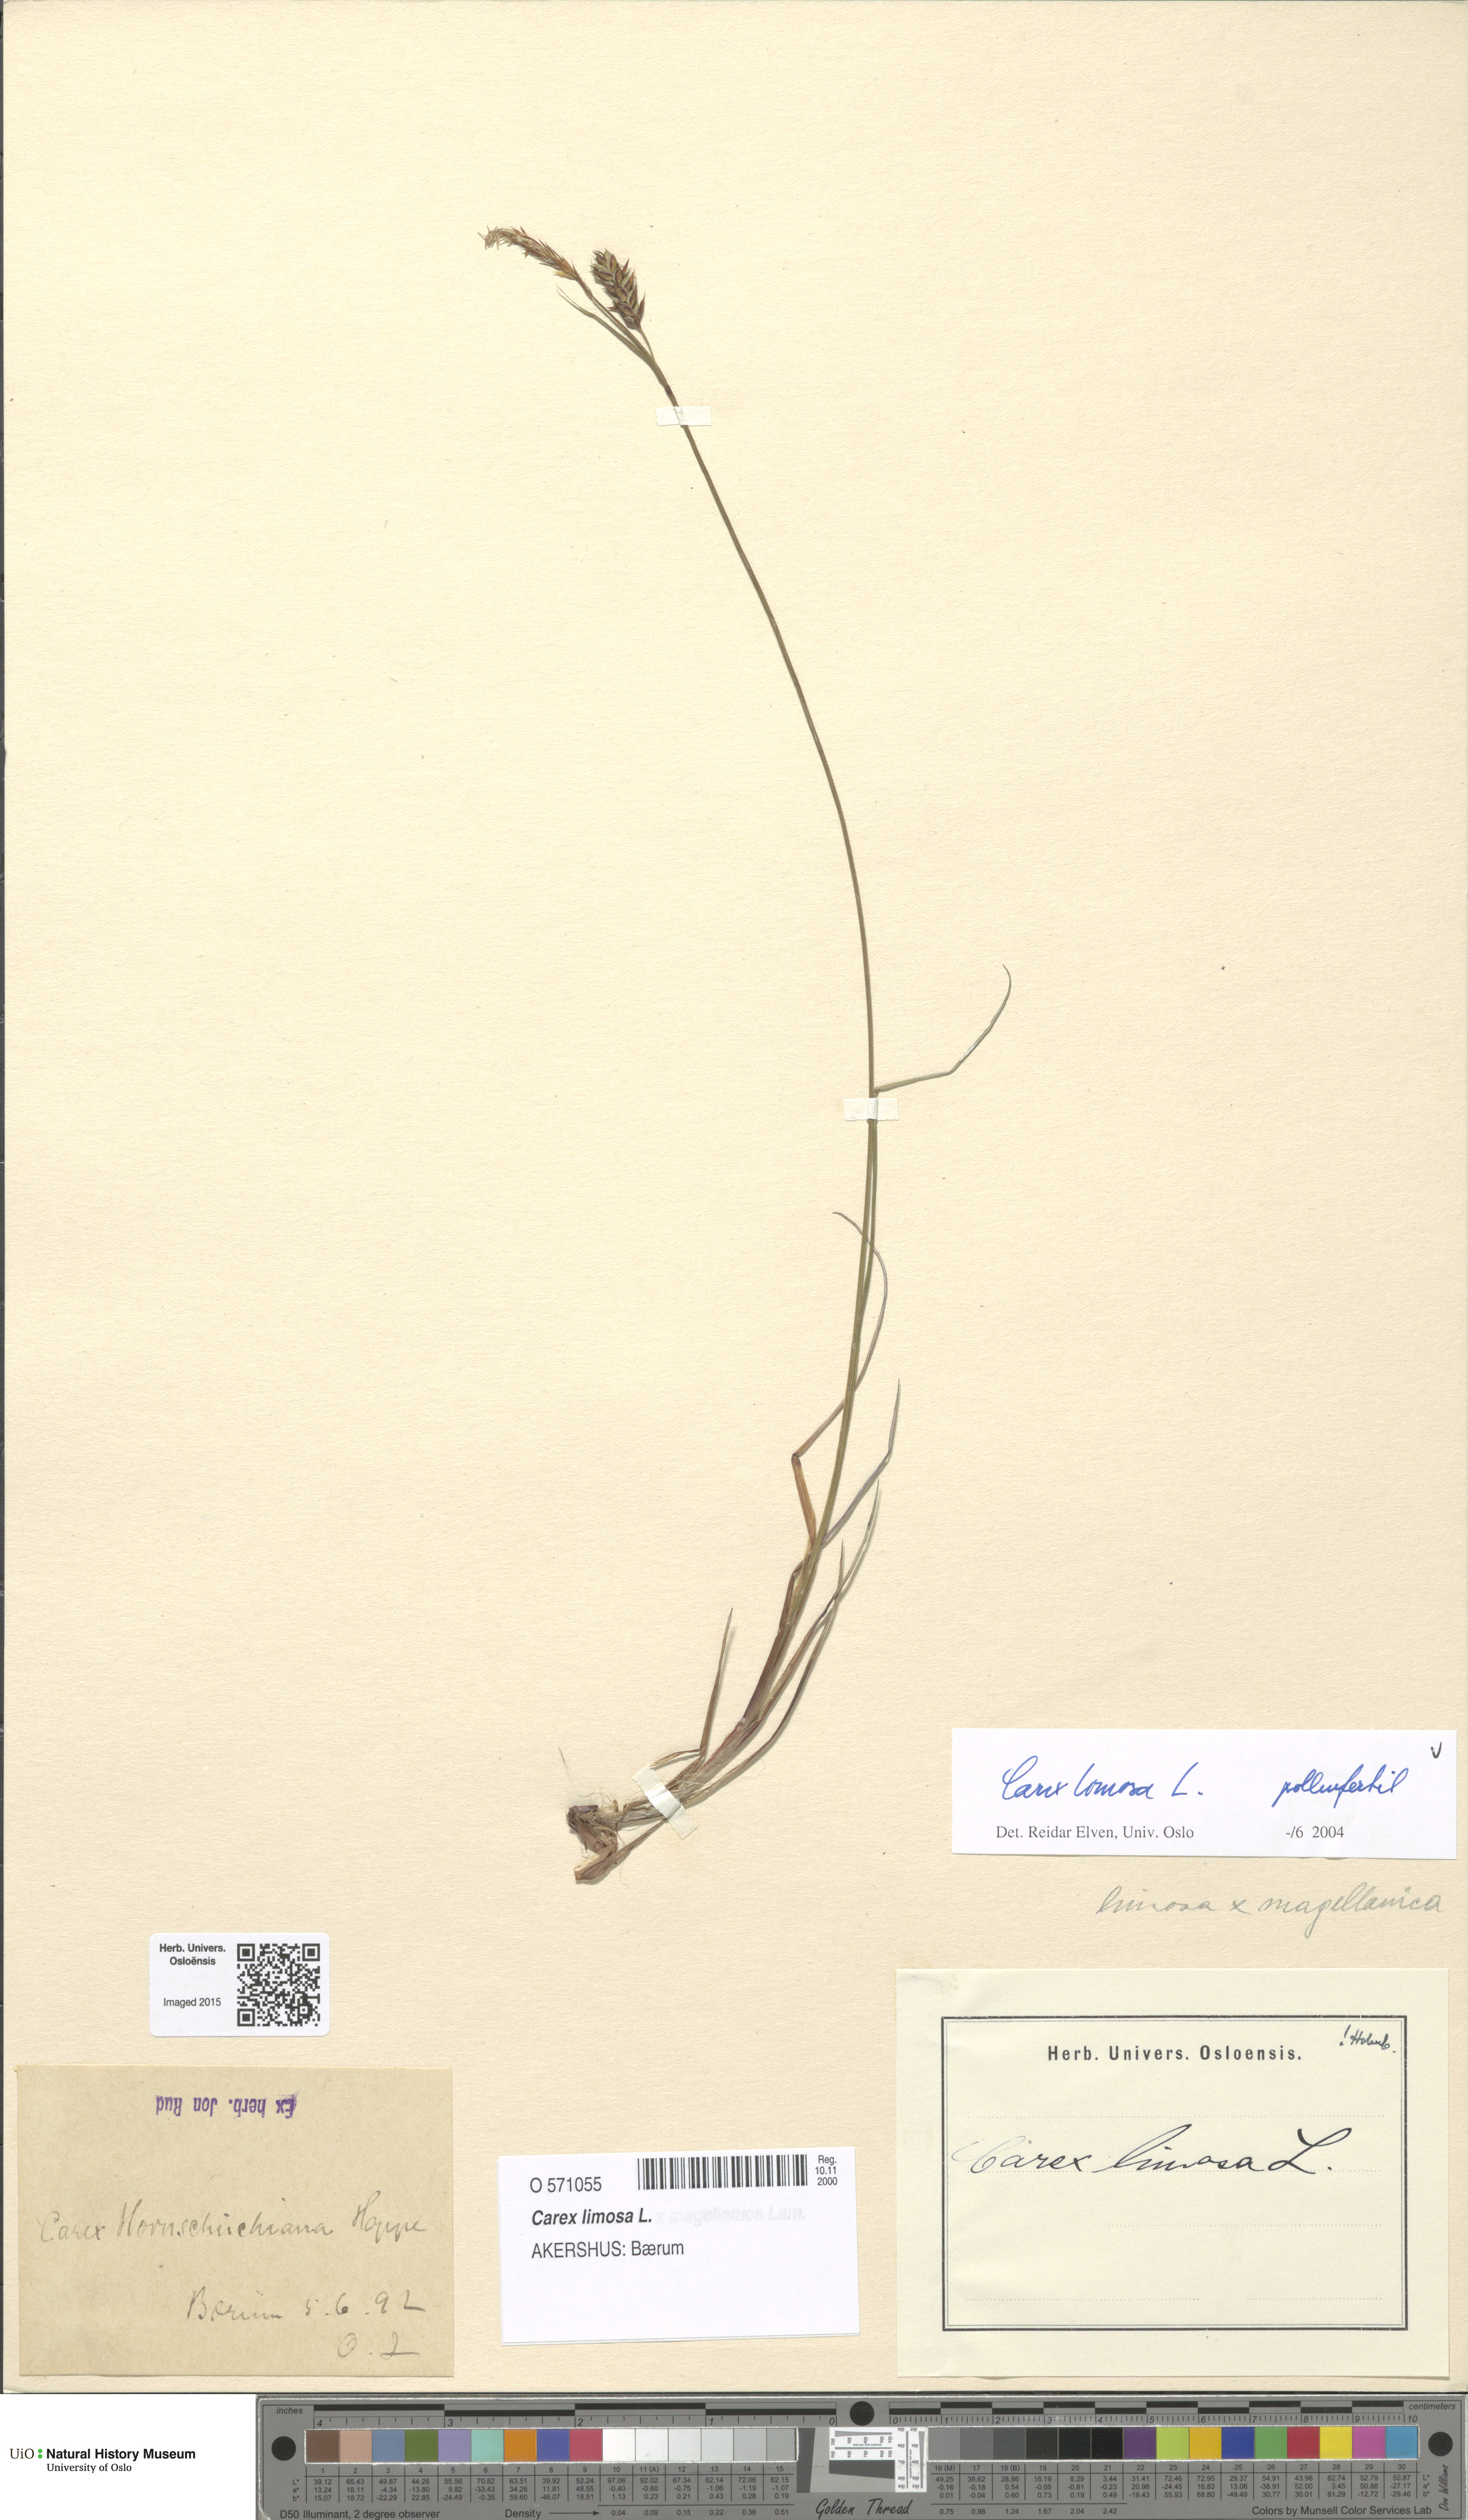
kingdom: Plantae
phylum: Tracheophyta
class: Liliopsida
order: Poales
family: Cyperaceae
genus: Carex
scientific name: Carex limosa
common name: Bog sedge
